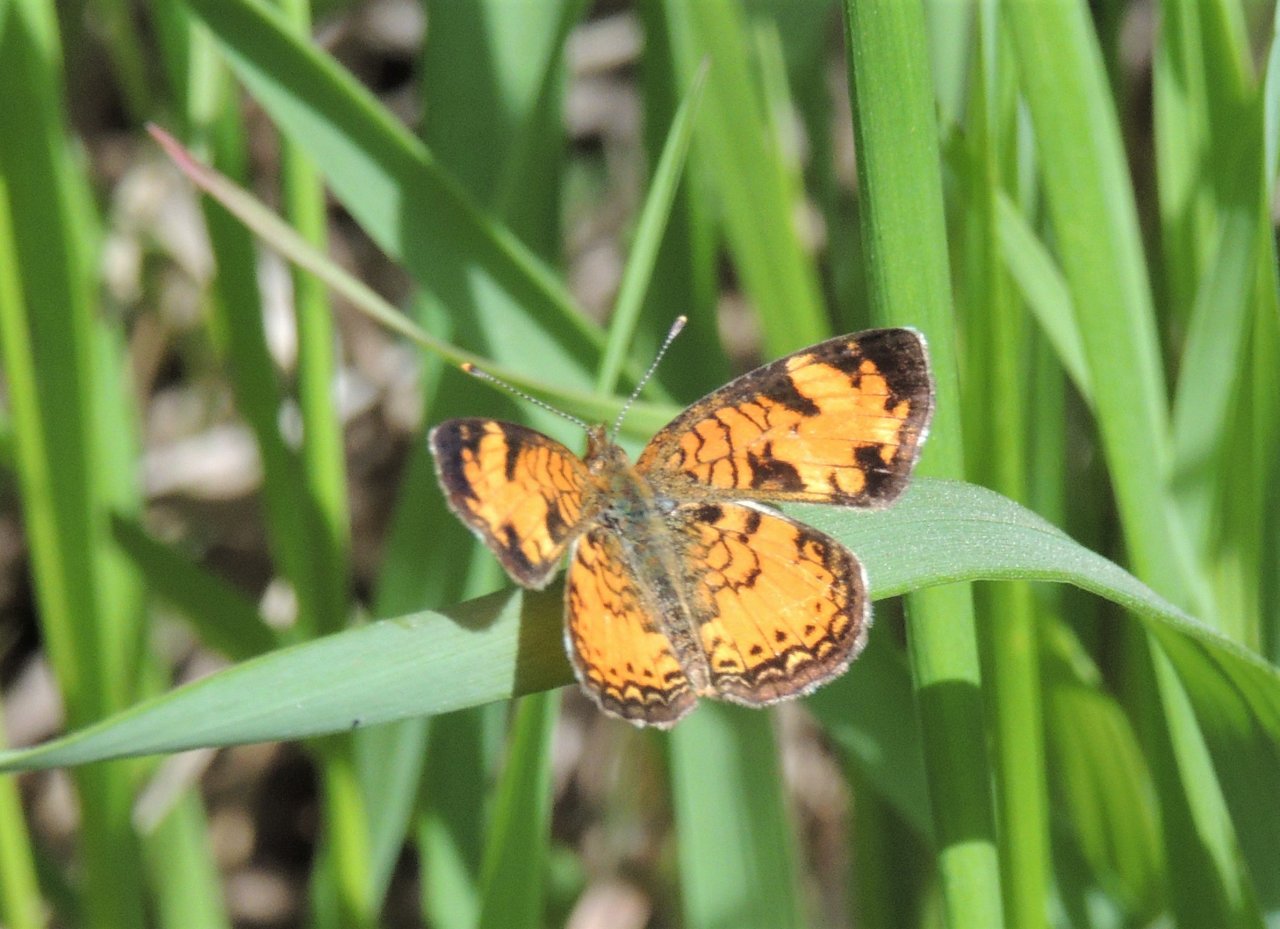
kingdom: Animalia
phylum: Arthropoda
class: Insecta
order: Lepidoptera
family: Nymphalidae
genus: Phyciodes
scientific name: Phyciodes tharos
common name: Northern Crescent
